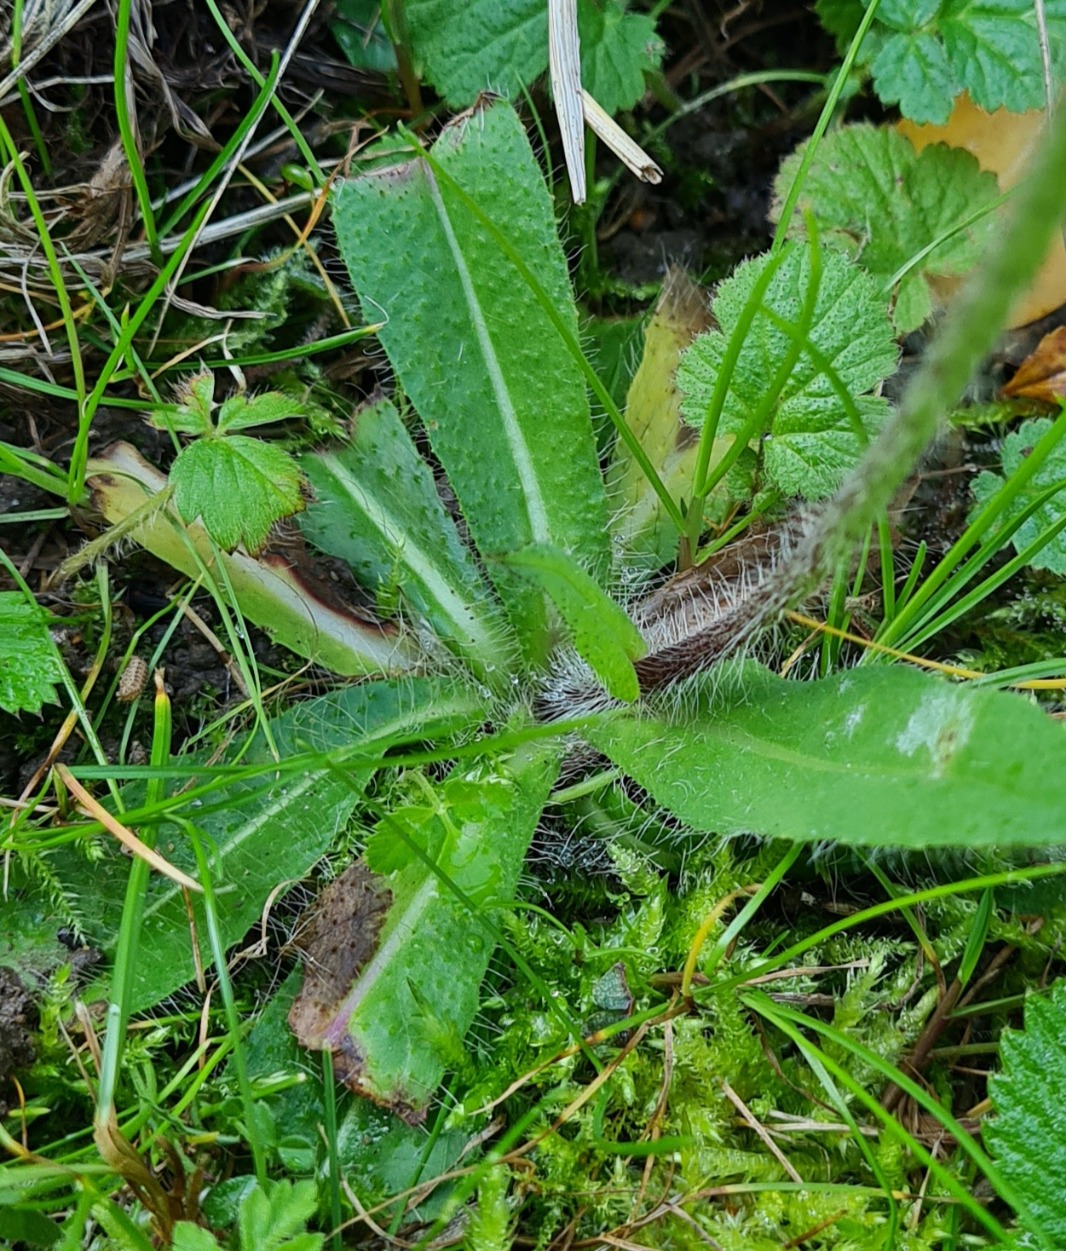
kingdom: Plantae
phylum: Tracheophyta
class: Magnoliopsida
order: Asterales
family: Asteraceae
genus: Pilosella
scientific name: Pilosella
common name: Pomerans-høgeurt × håret høgeurt
